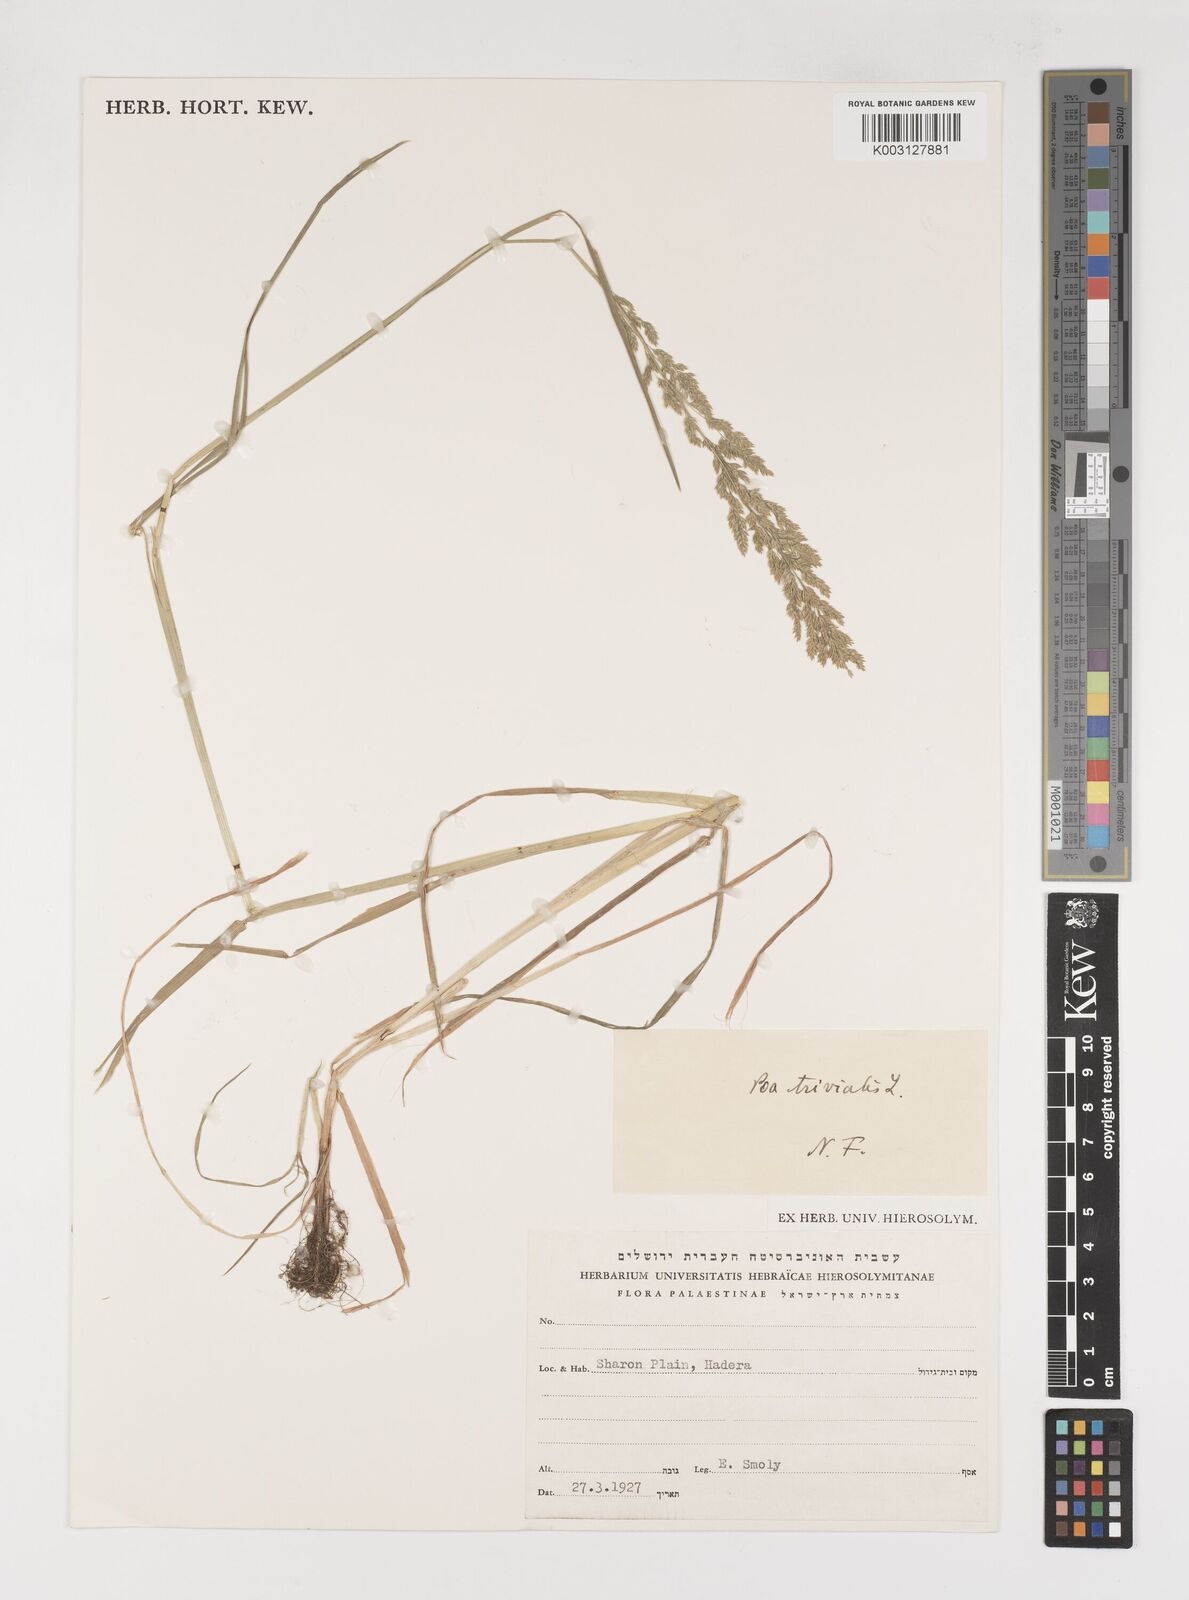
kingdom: Plantae
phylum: Tracheophyta
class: Liliopsida
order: Poales
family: Poaceae
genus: Poa
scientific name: Poa trivialis
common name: Rough bluegrass
